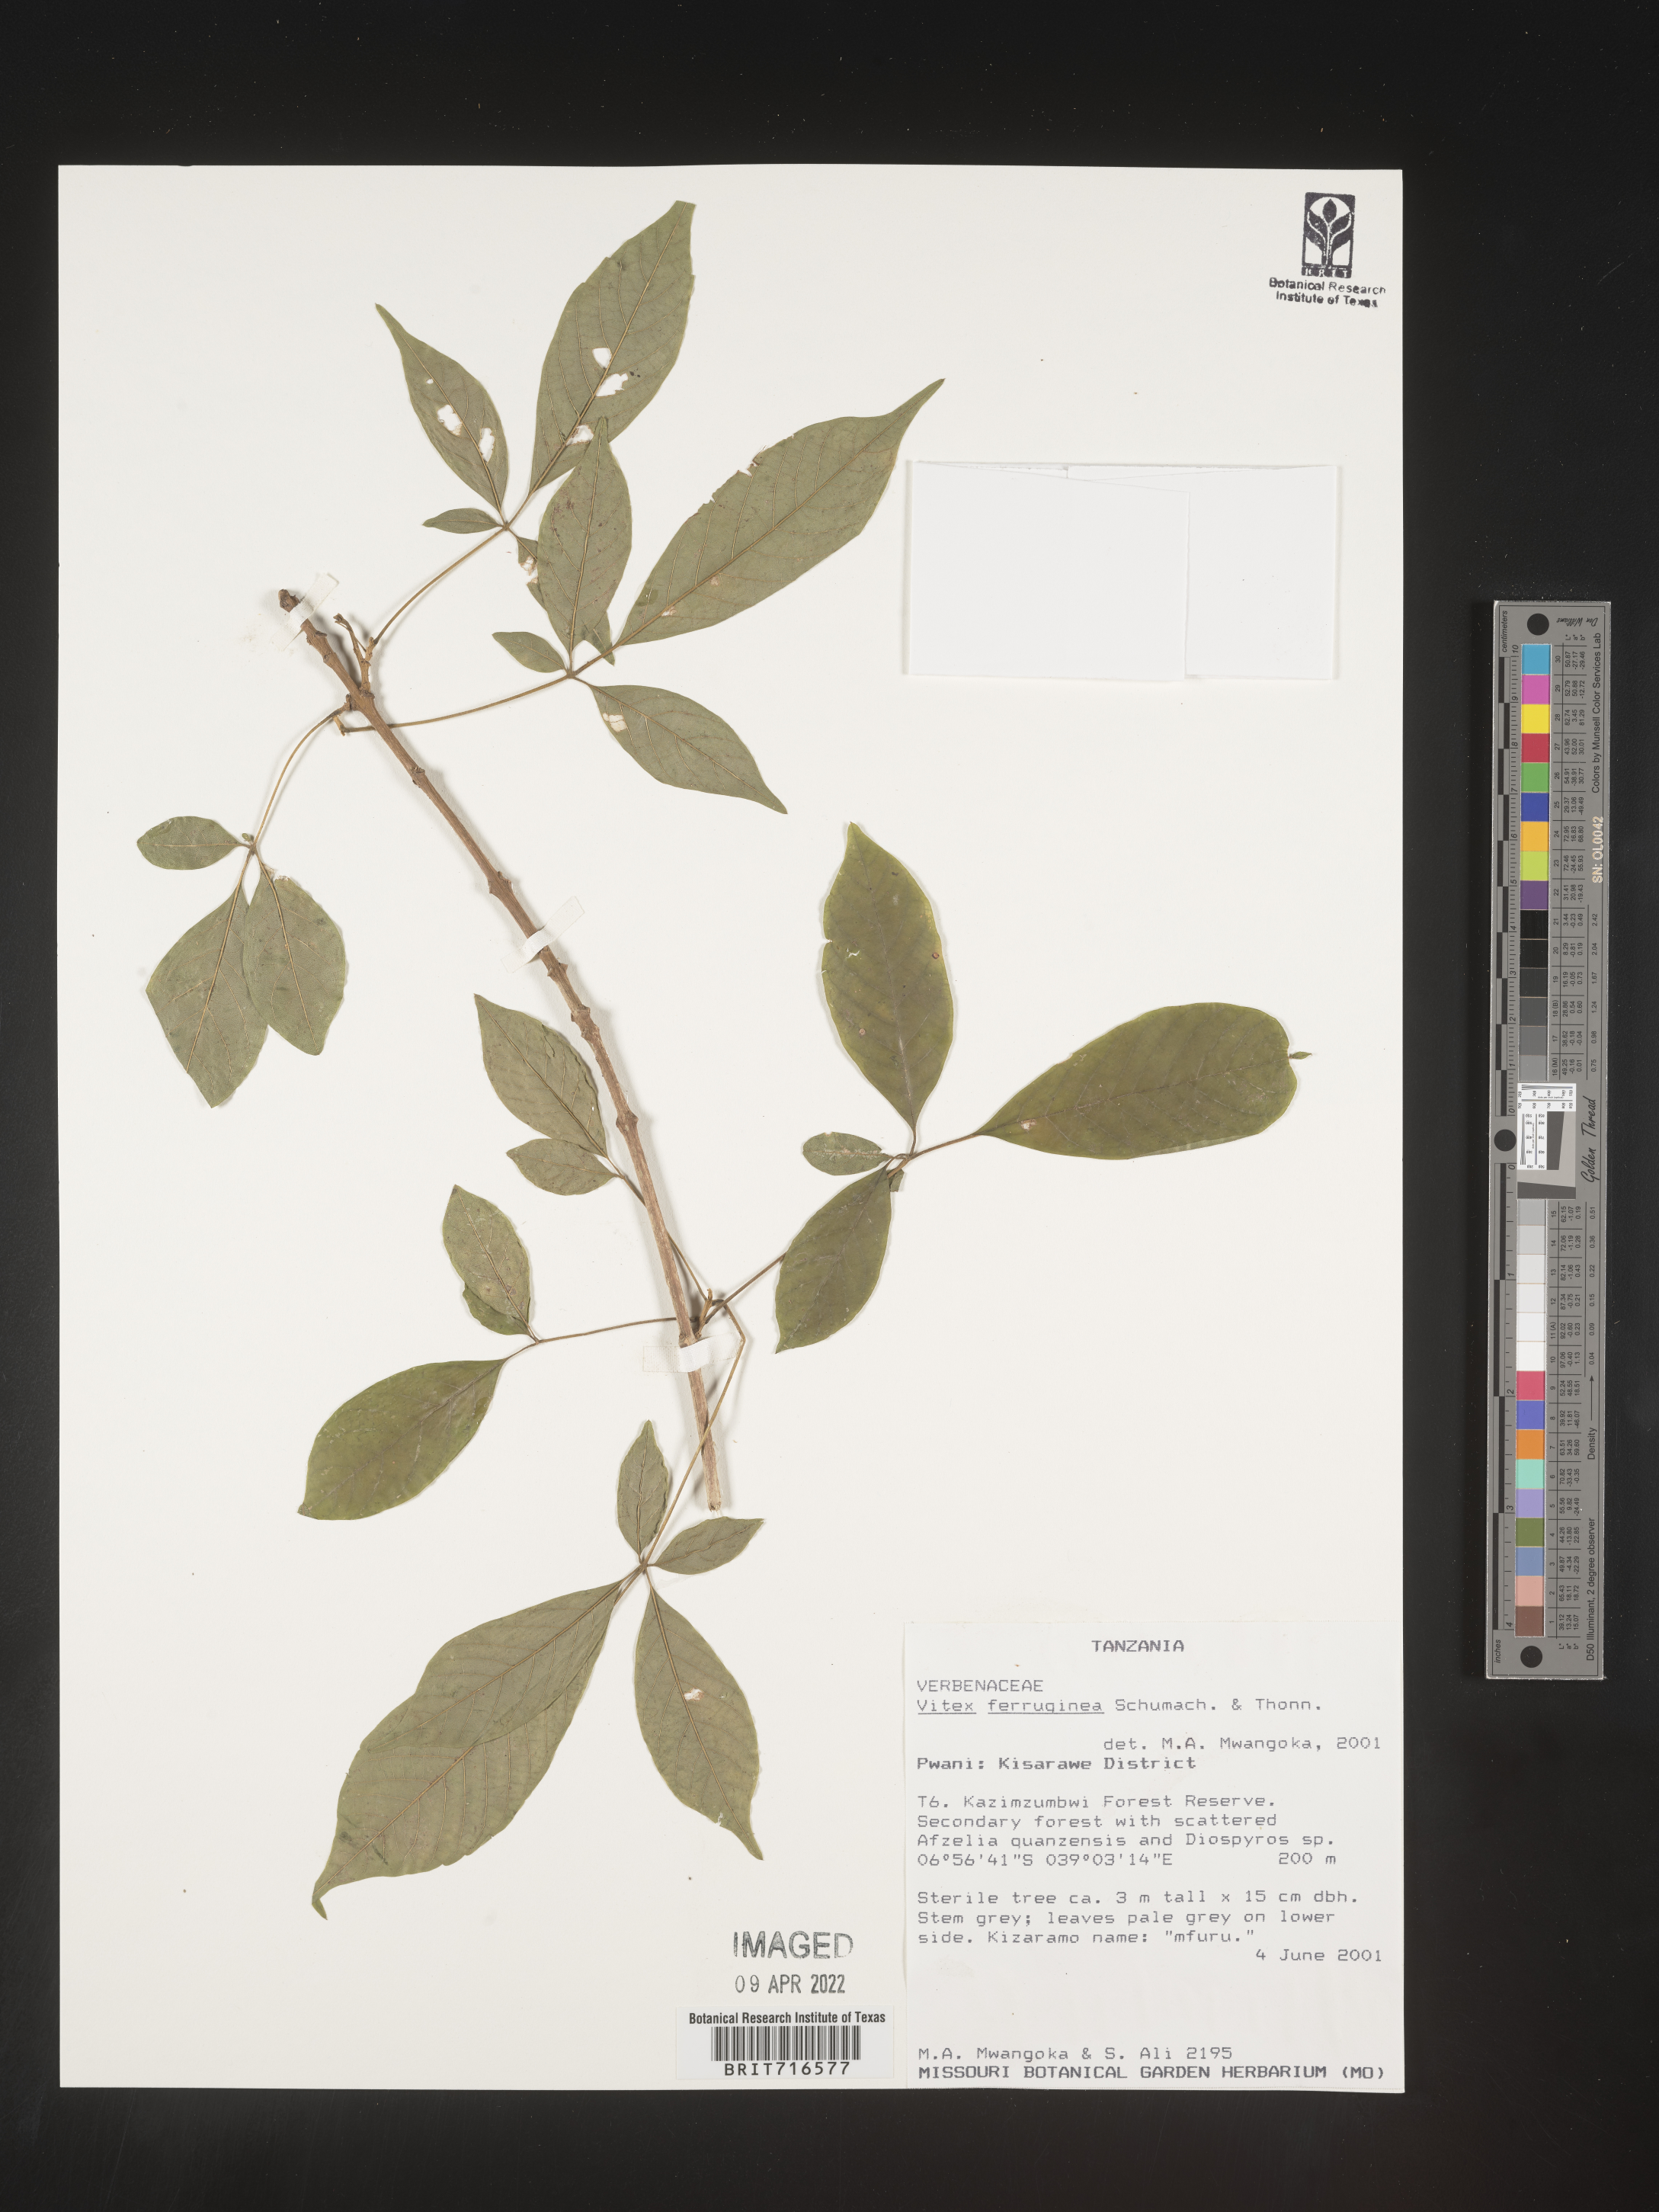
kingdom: Plantae
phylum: Tracheophyta
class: Magnoliopsida
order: Lamiales
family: Lamiaceae
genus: Vitex
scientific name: Vitex
